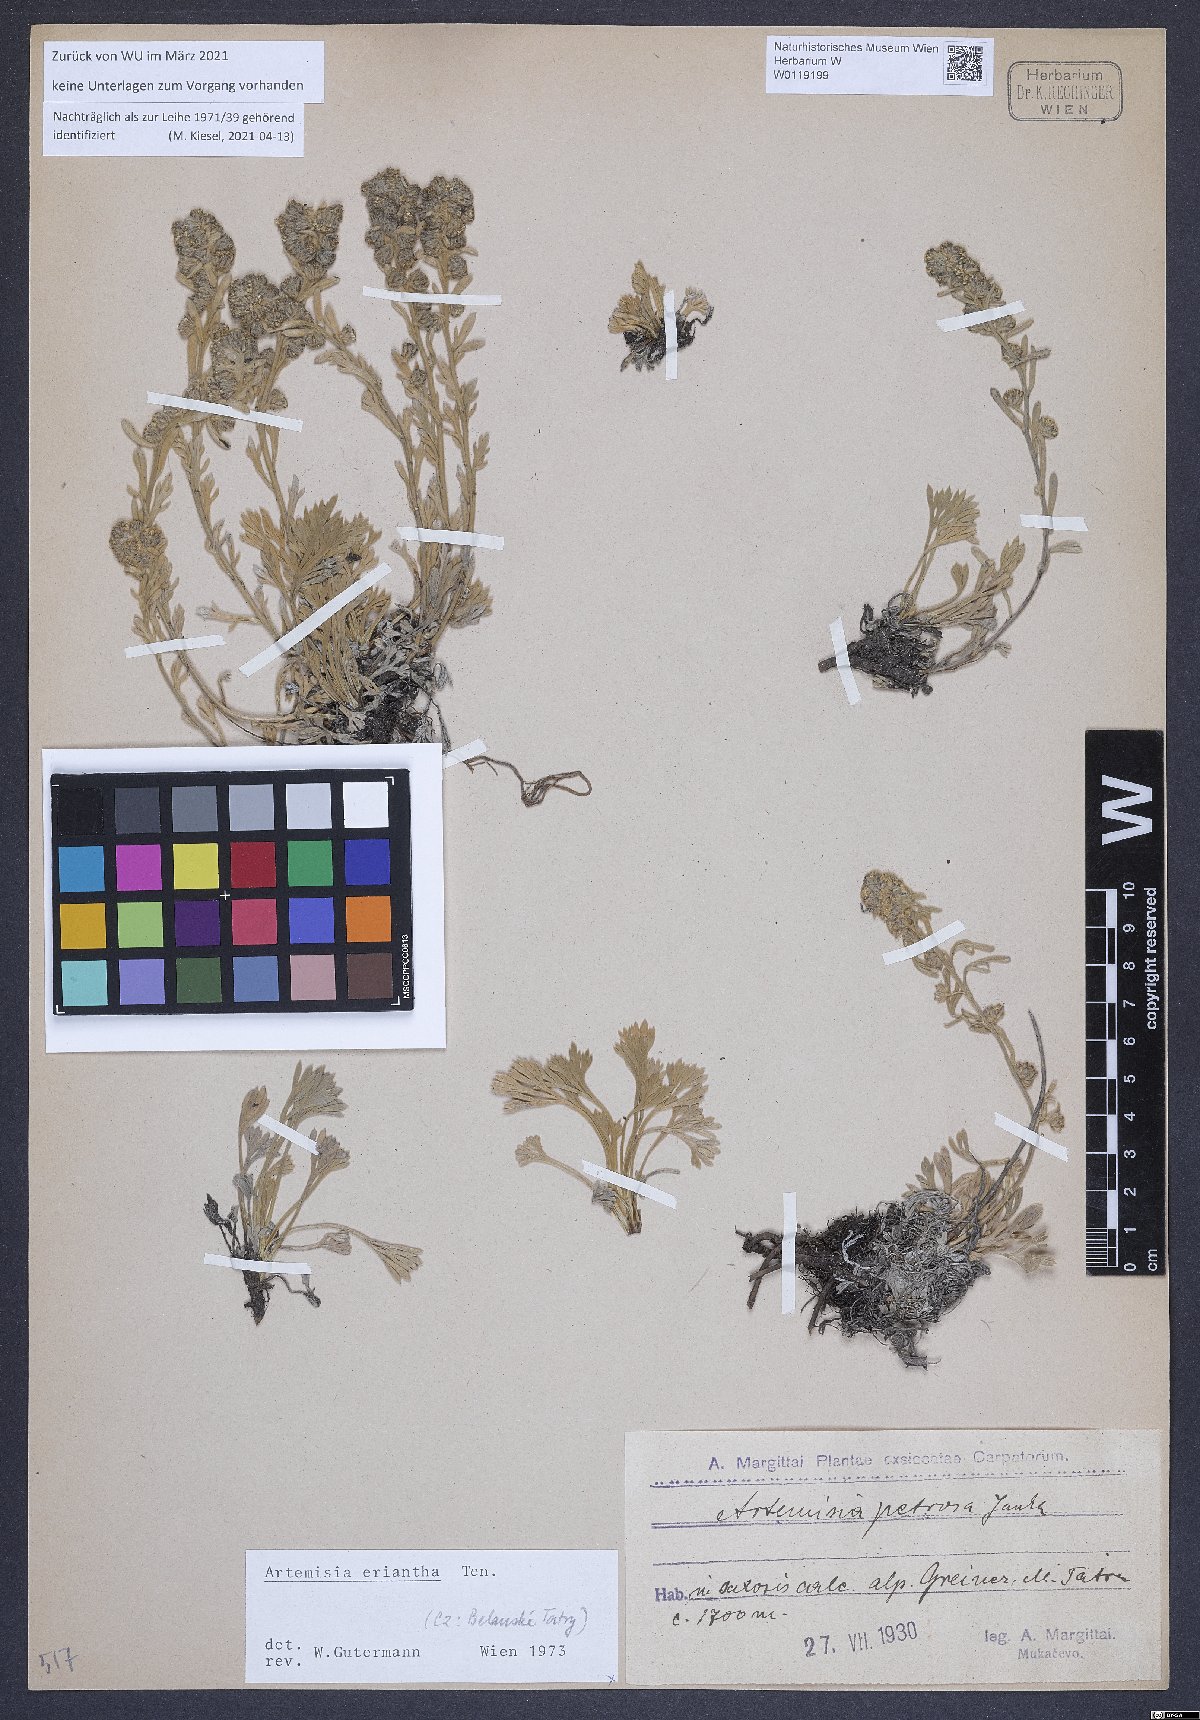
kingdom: Plantae
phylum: Tracheophyta
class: Magnoliopsida
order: Asterales
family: Asteraceae
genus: Artemisia
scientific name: Artemisia eriantha
